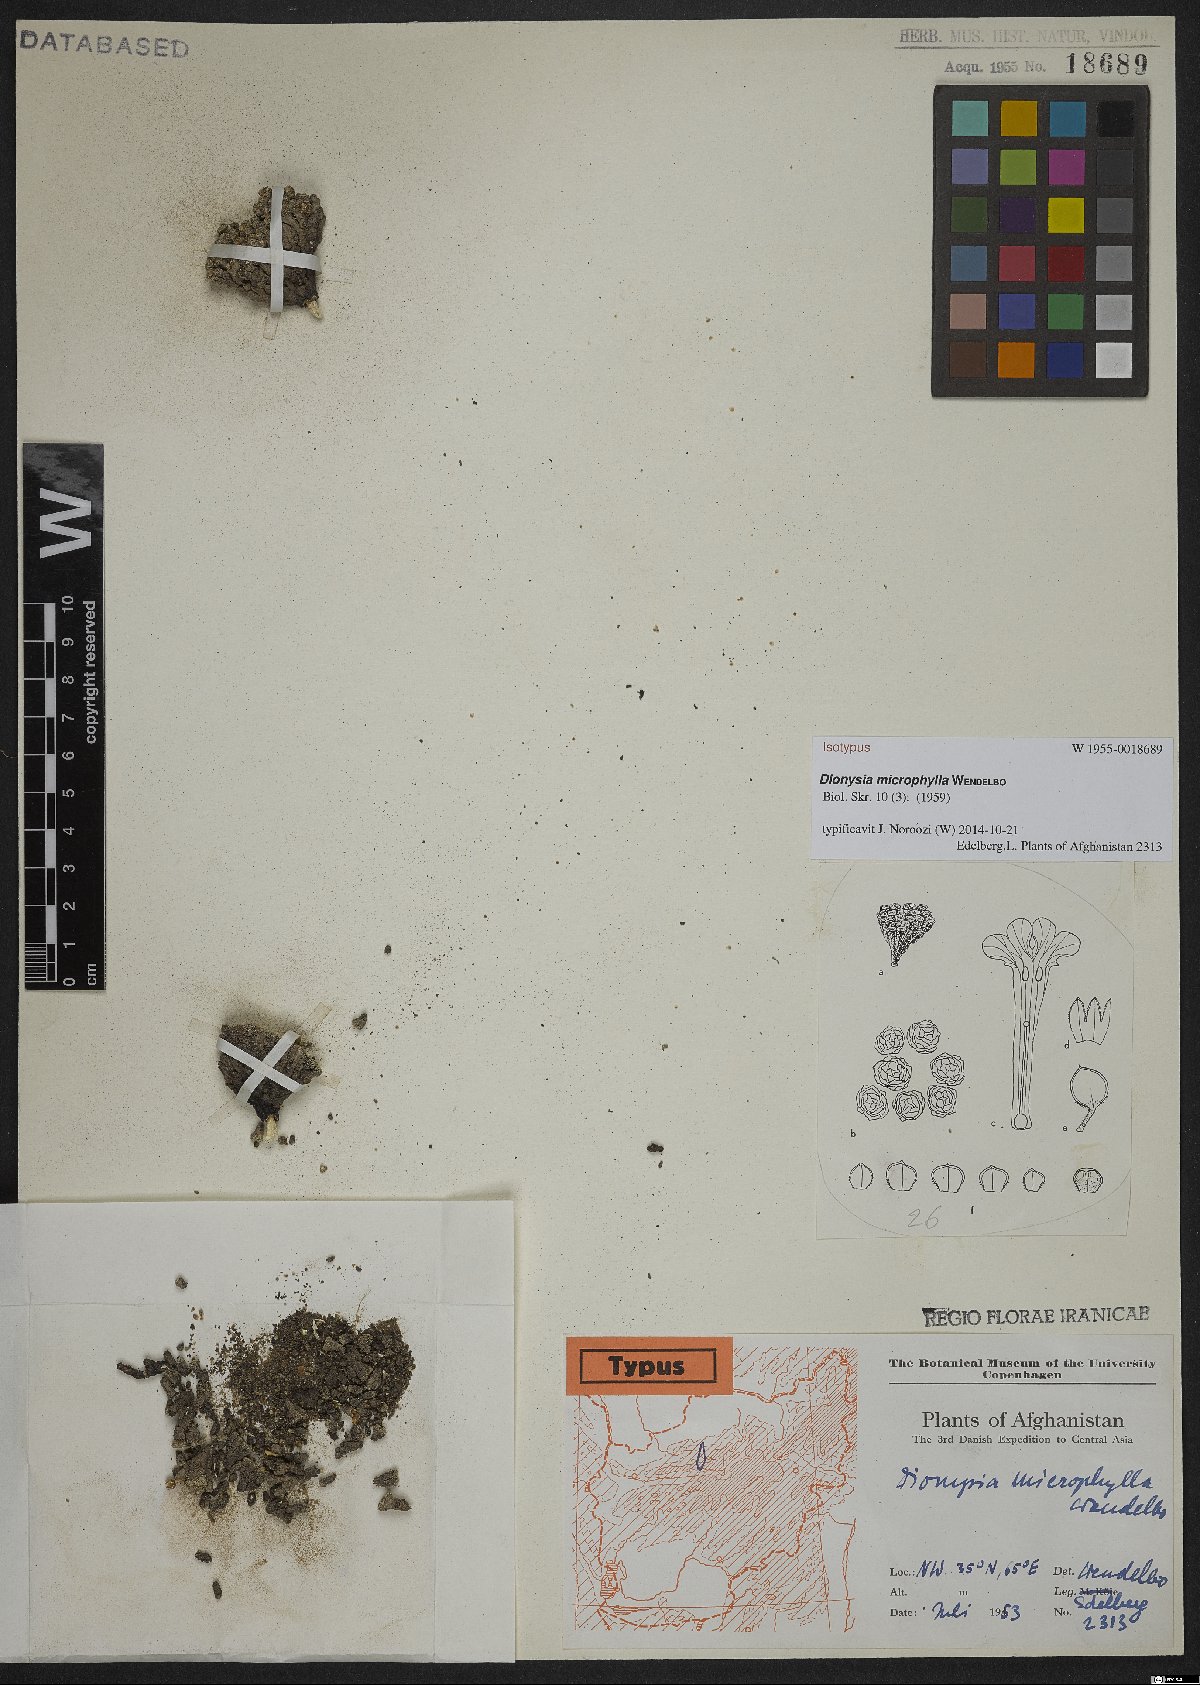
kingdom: Plantae
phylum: Tracheophyta
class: Magnoliopsida
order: Ericales
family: Primulaceae
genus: Dionysia
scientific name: Dionysia microphylla
